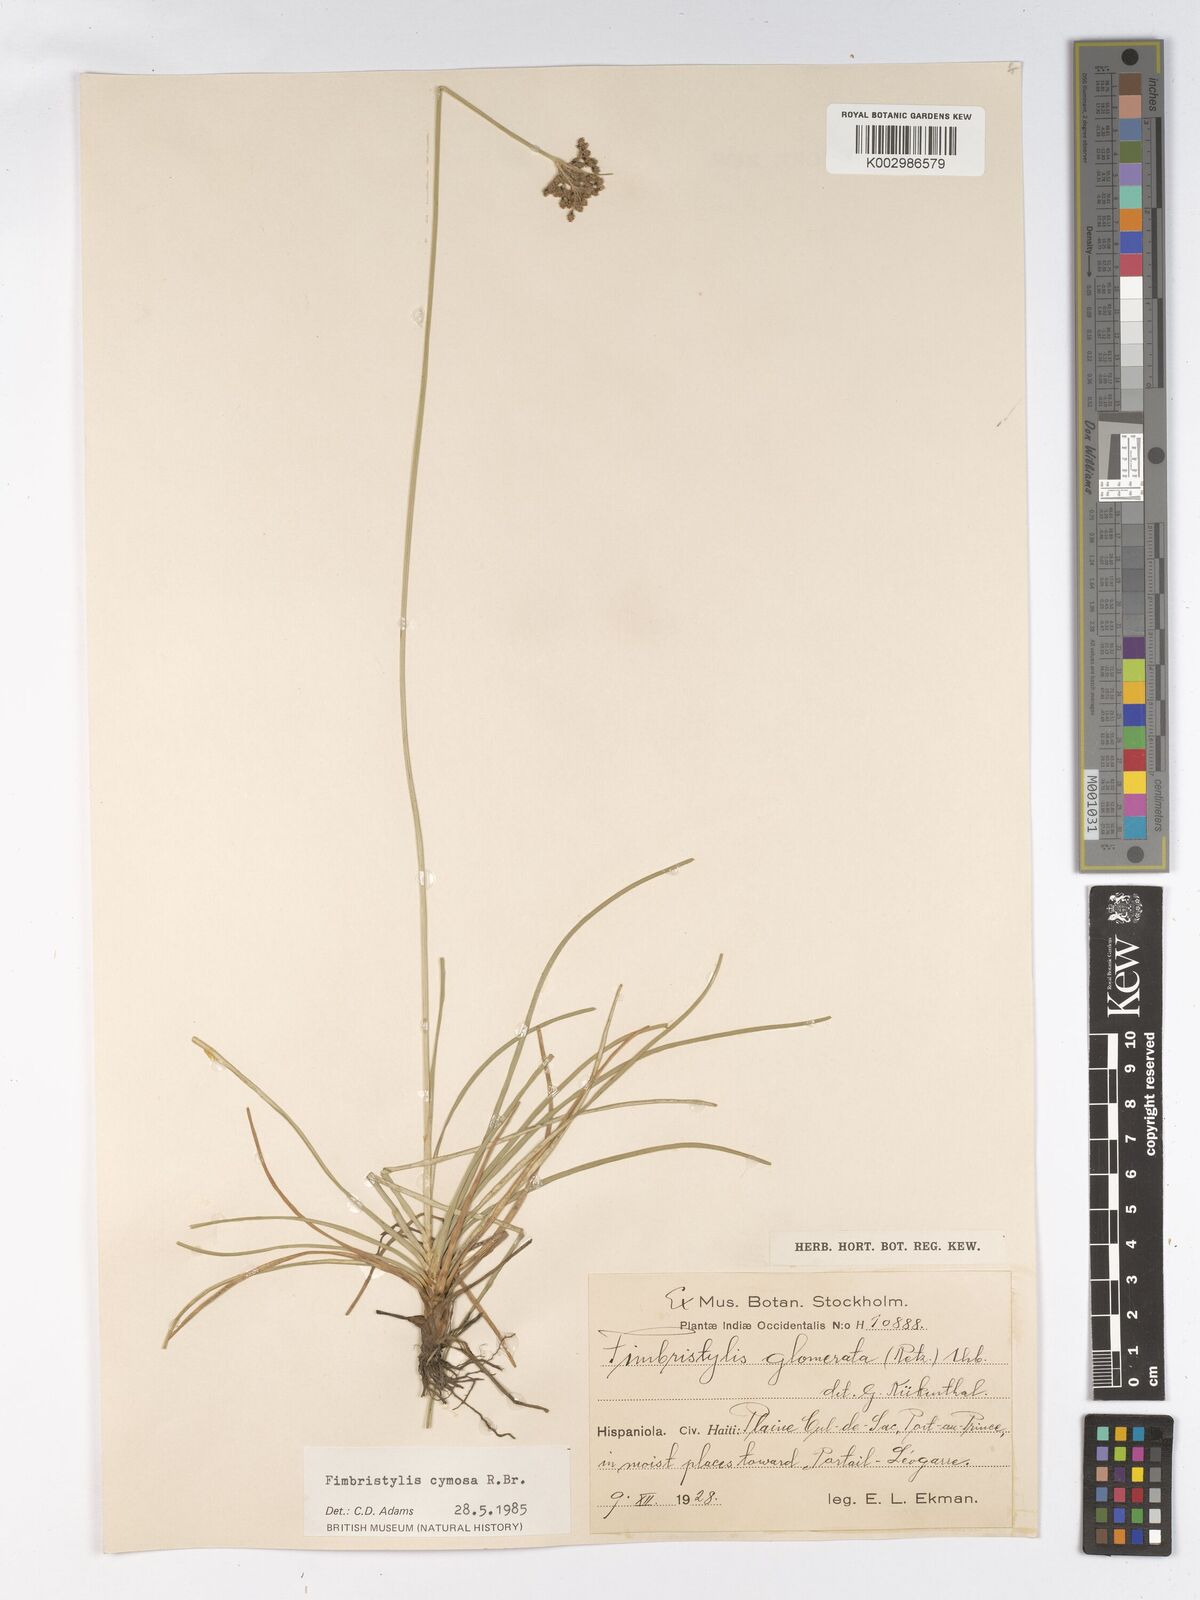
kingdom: Plantae
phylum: Tracheophyta
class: Liliopsida
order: Poales
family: Cyperaceae
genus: Fimbristylis
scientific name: Fimbristylis
